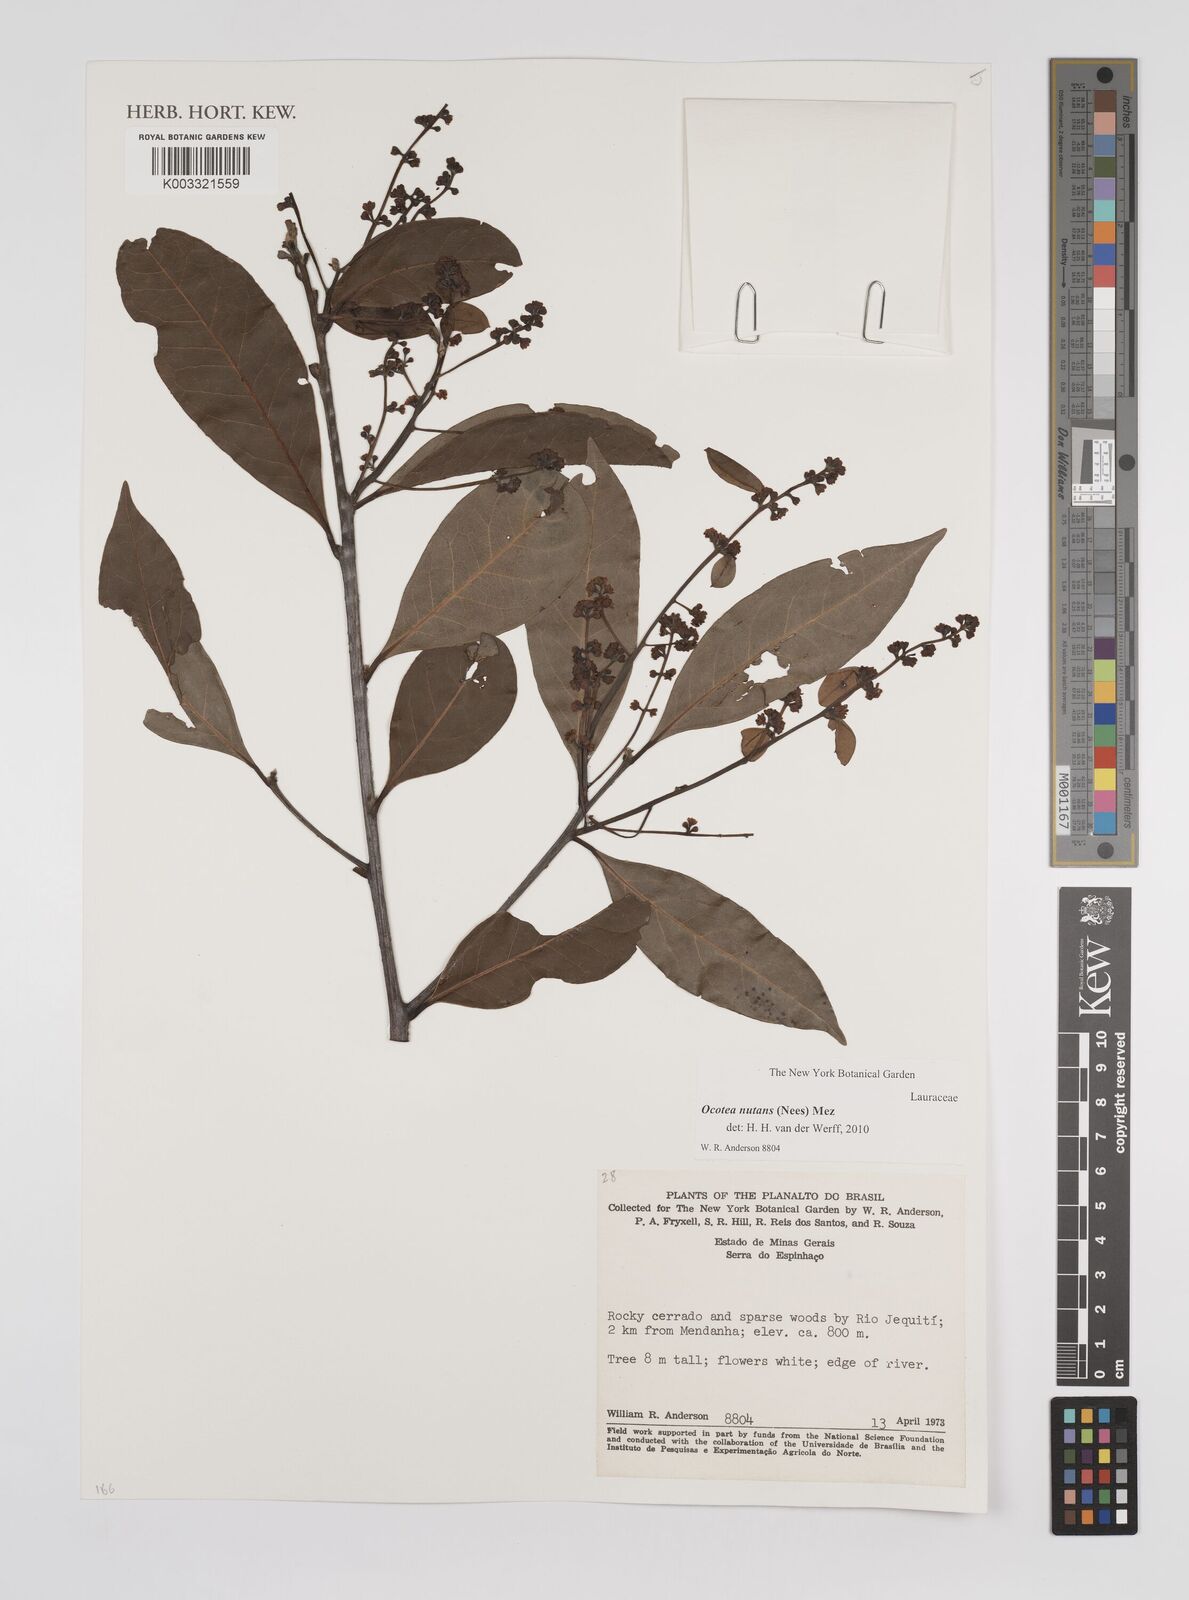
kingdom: Plantae
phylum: Tracheophyta
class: Magnoliopsida
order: Laurales
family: Lauraceae
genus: Mespilodaphne
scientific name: Mespilodaphne nutans
